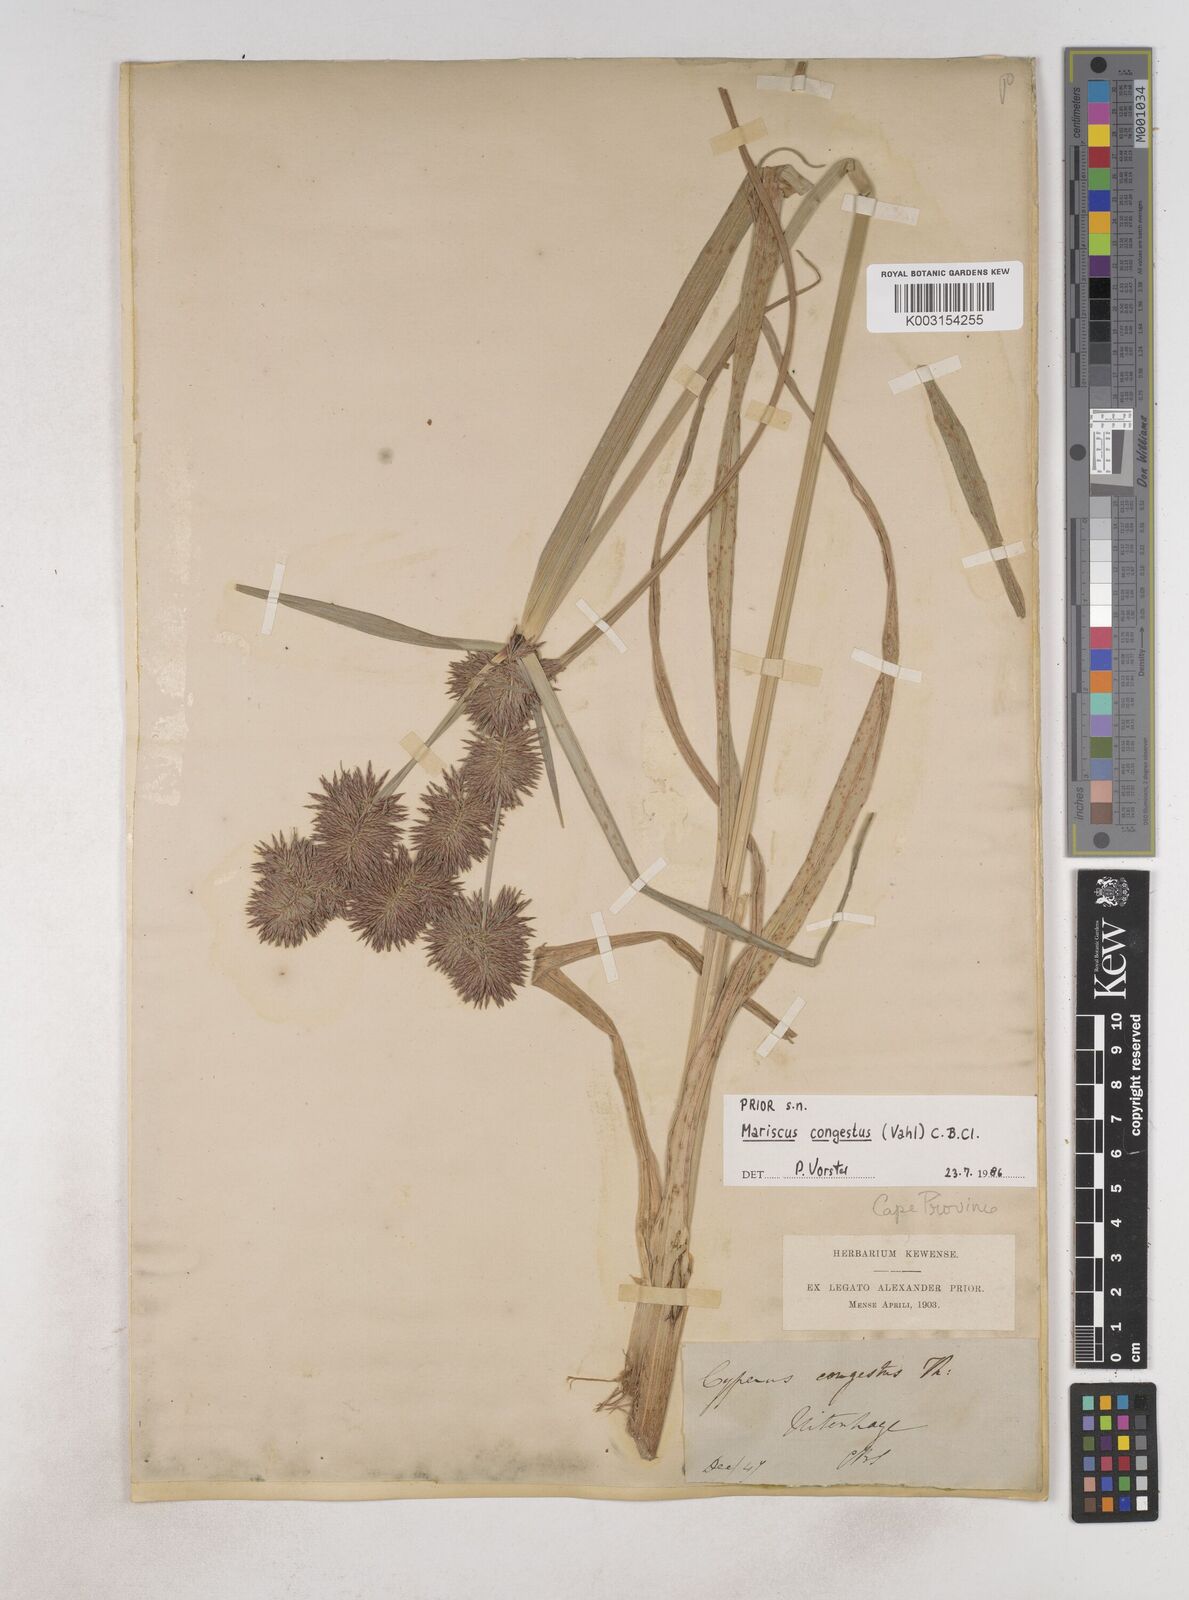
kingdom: Plantae
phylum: Tracheophyta
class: Liliopsida
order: Poales
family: Cyperaceae
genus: Cyperus
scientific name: Cyperus congestus
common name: Dense flat sedge
